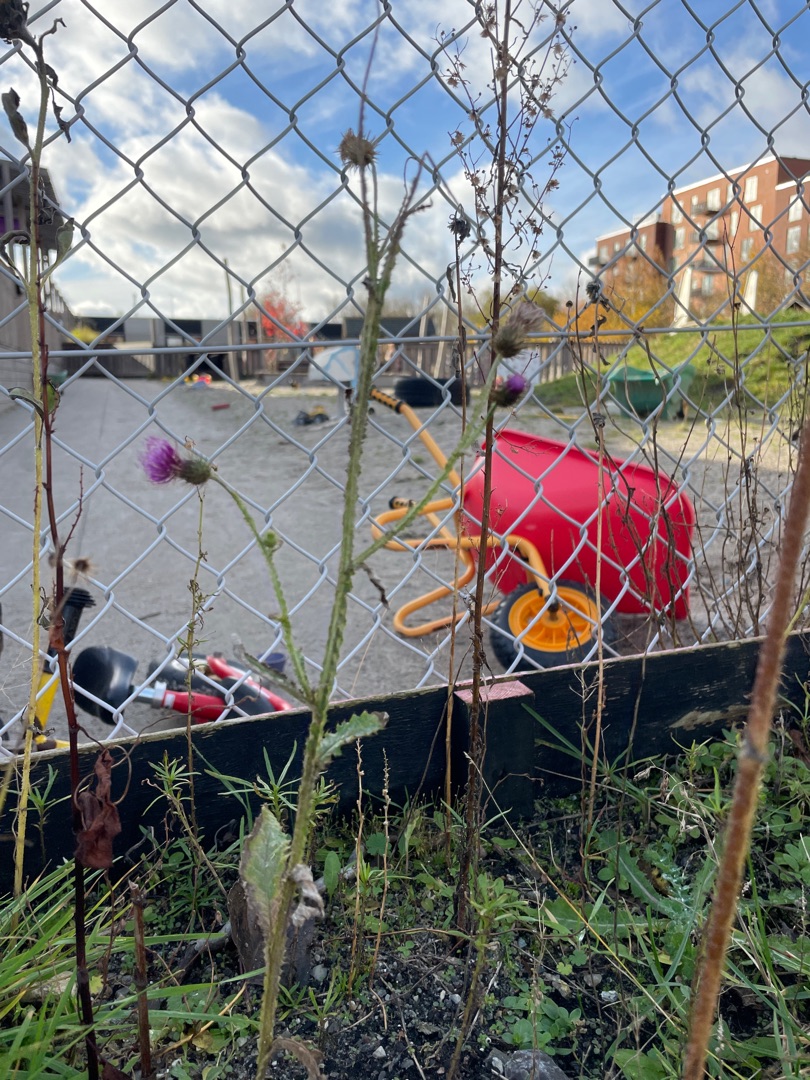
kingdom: Plantae
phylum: Tracheophyta
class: Magnoliopsida
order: Asterales
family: Asteraceae
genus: Carduus
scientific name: Carduus crispus
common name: Kruset tidsel
